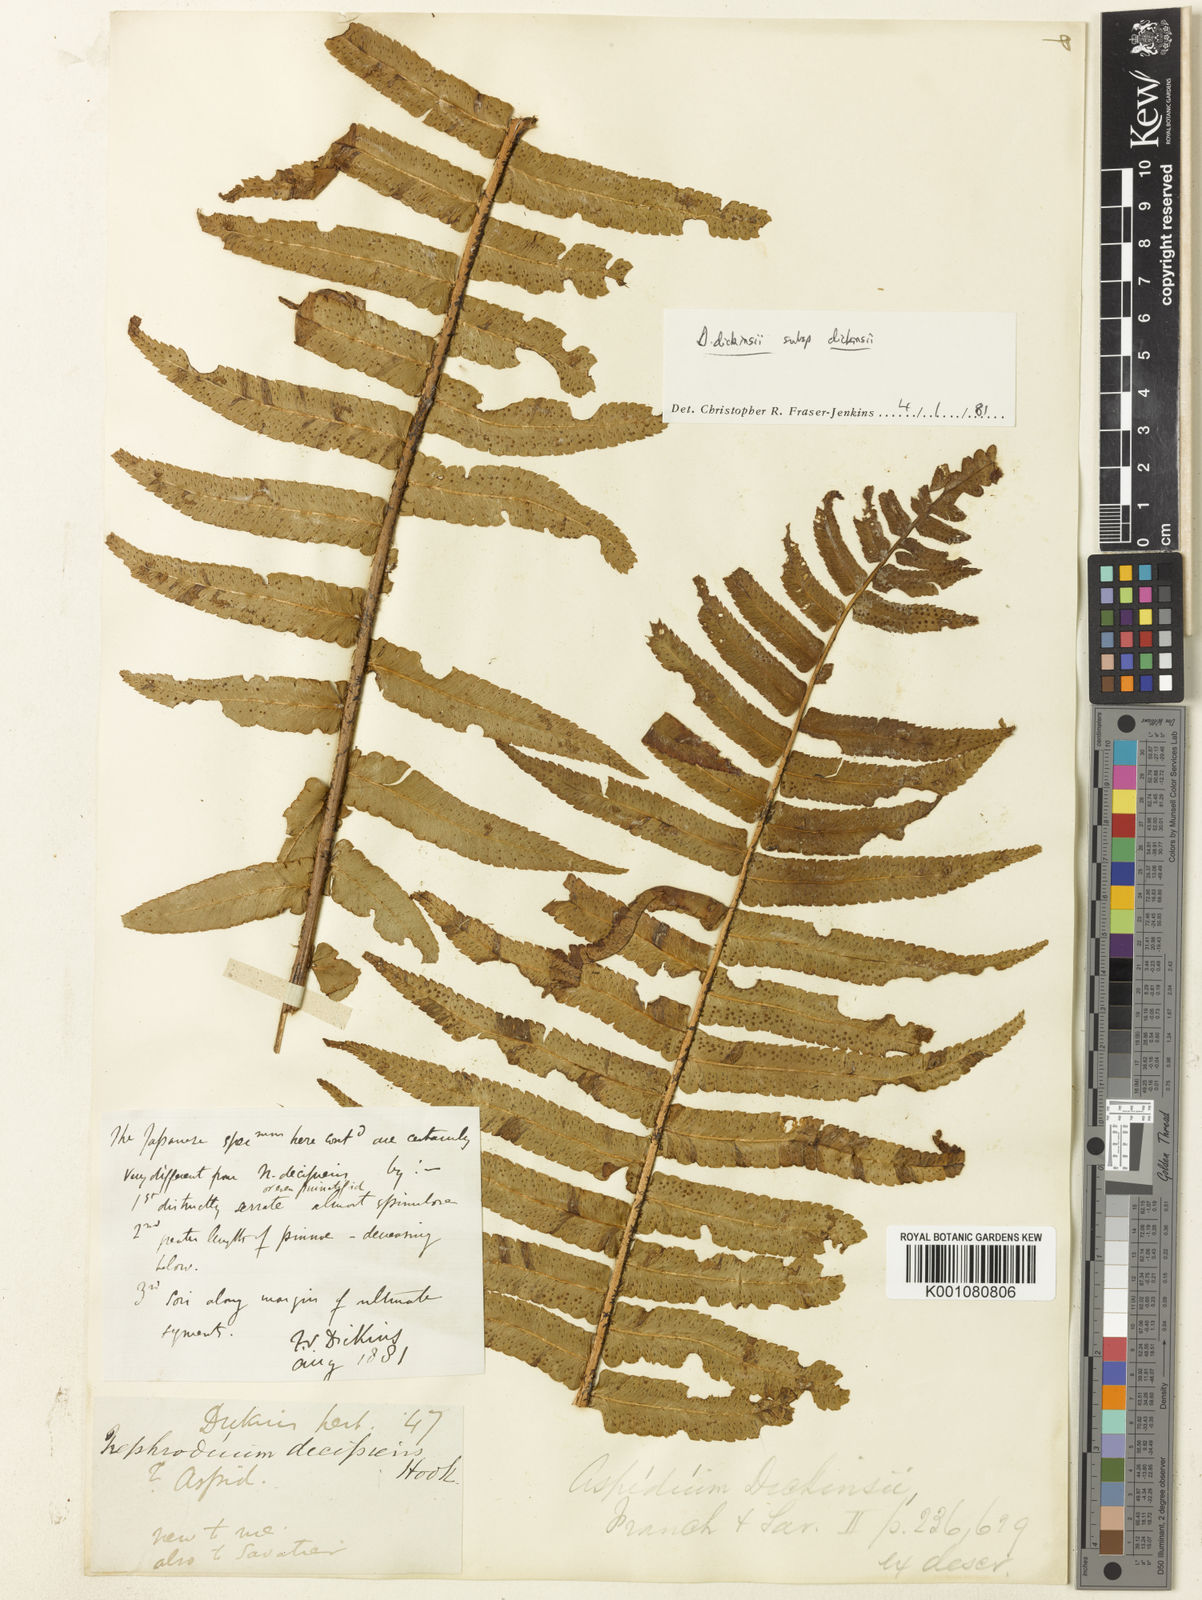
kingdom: Plantae
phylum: Tracheophyta
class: Polypodiopsida
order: Polypodiales
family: Dryopteridaceae
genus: Dryopteris
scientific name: Dryopteris dickinsii
